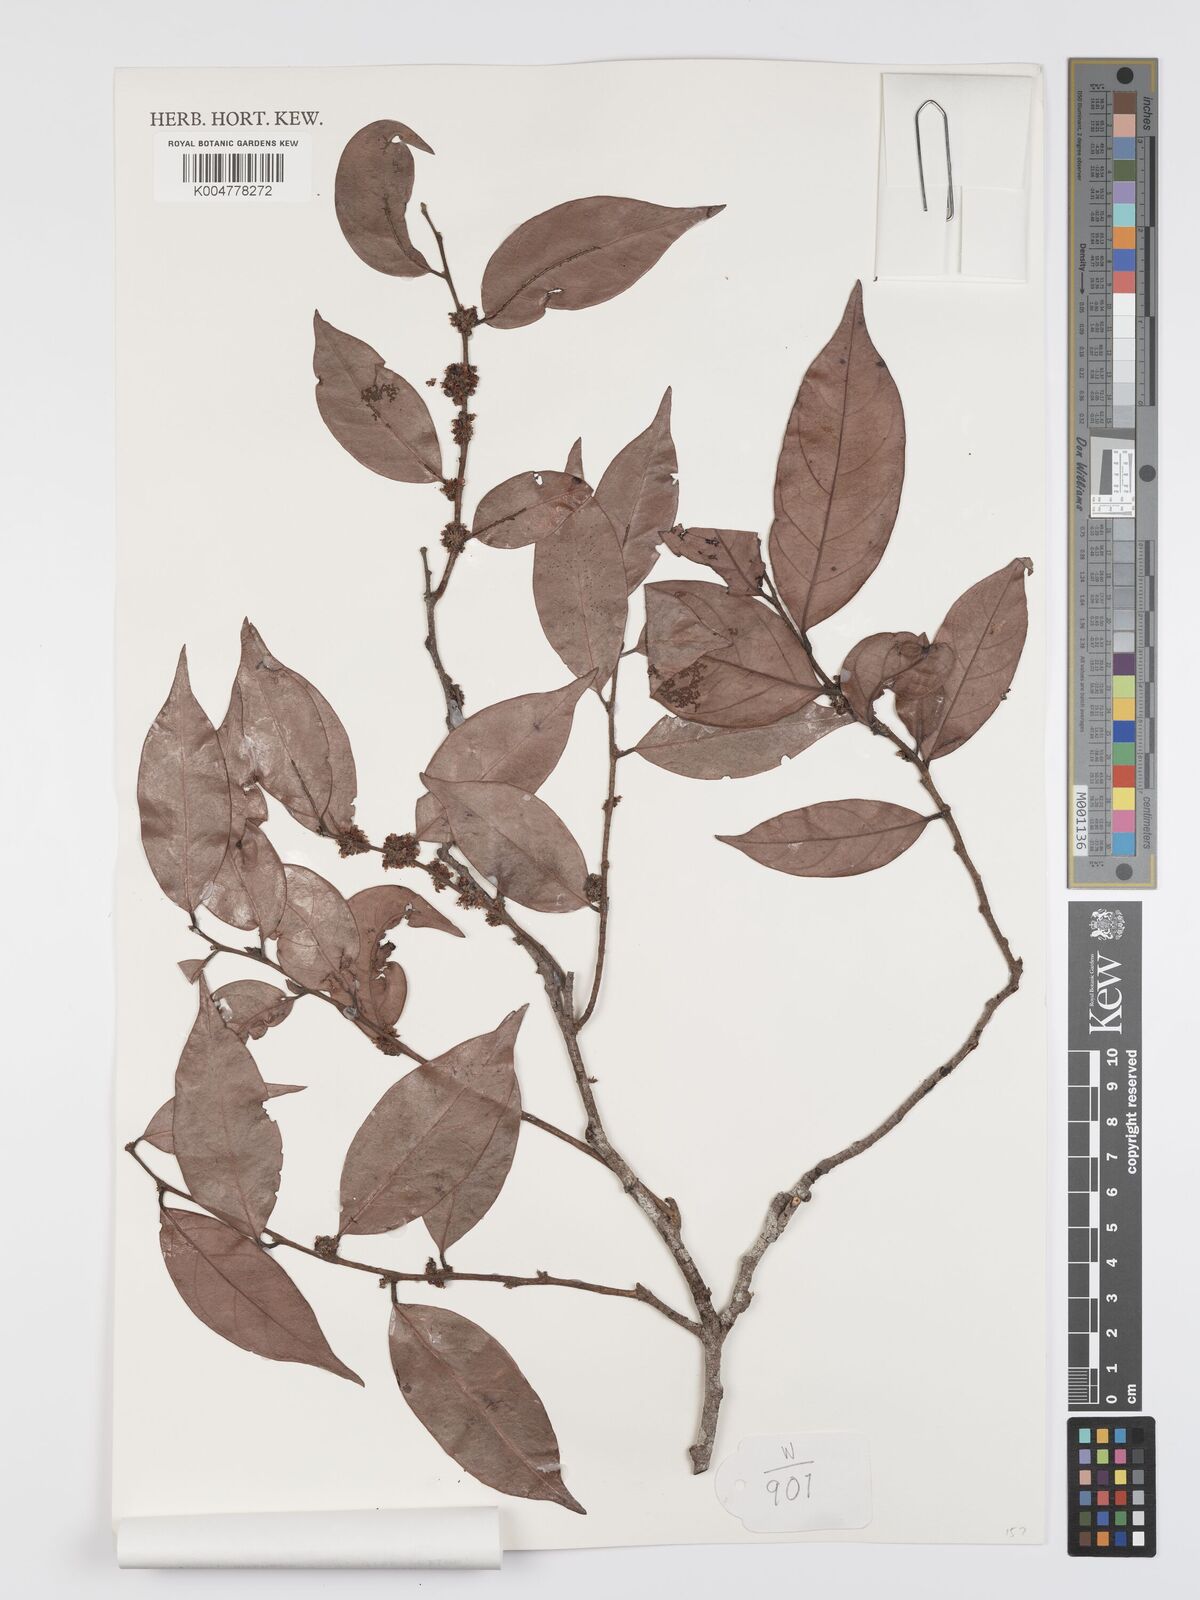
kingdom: Plantae
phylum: Tracheophyta
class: Magnoliopsida
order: Malpighiales
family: Peraceae
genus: Chaetocarpus
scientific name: Chaetocarpus castanocarpus
